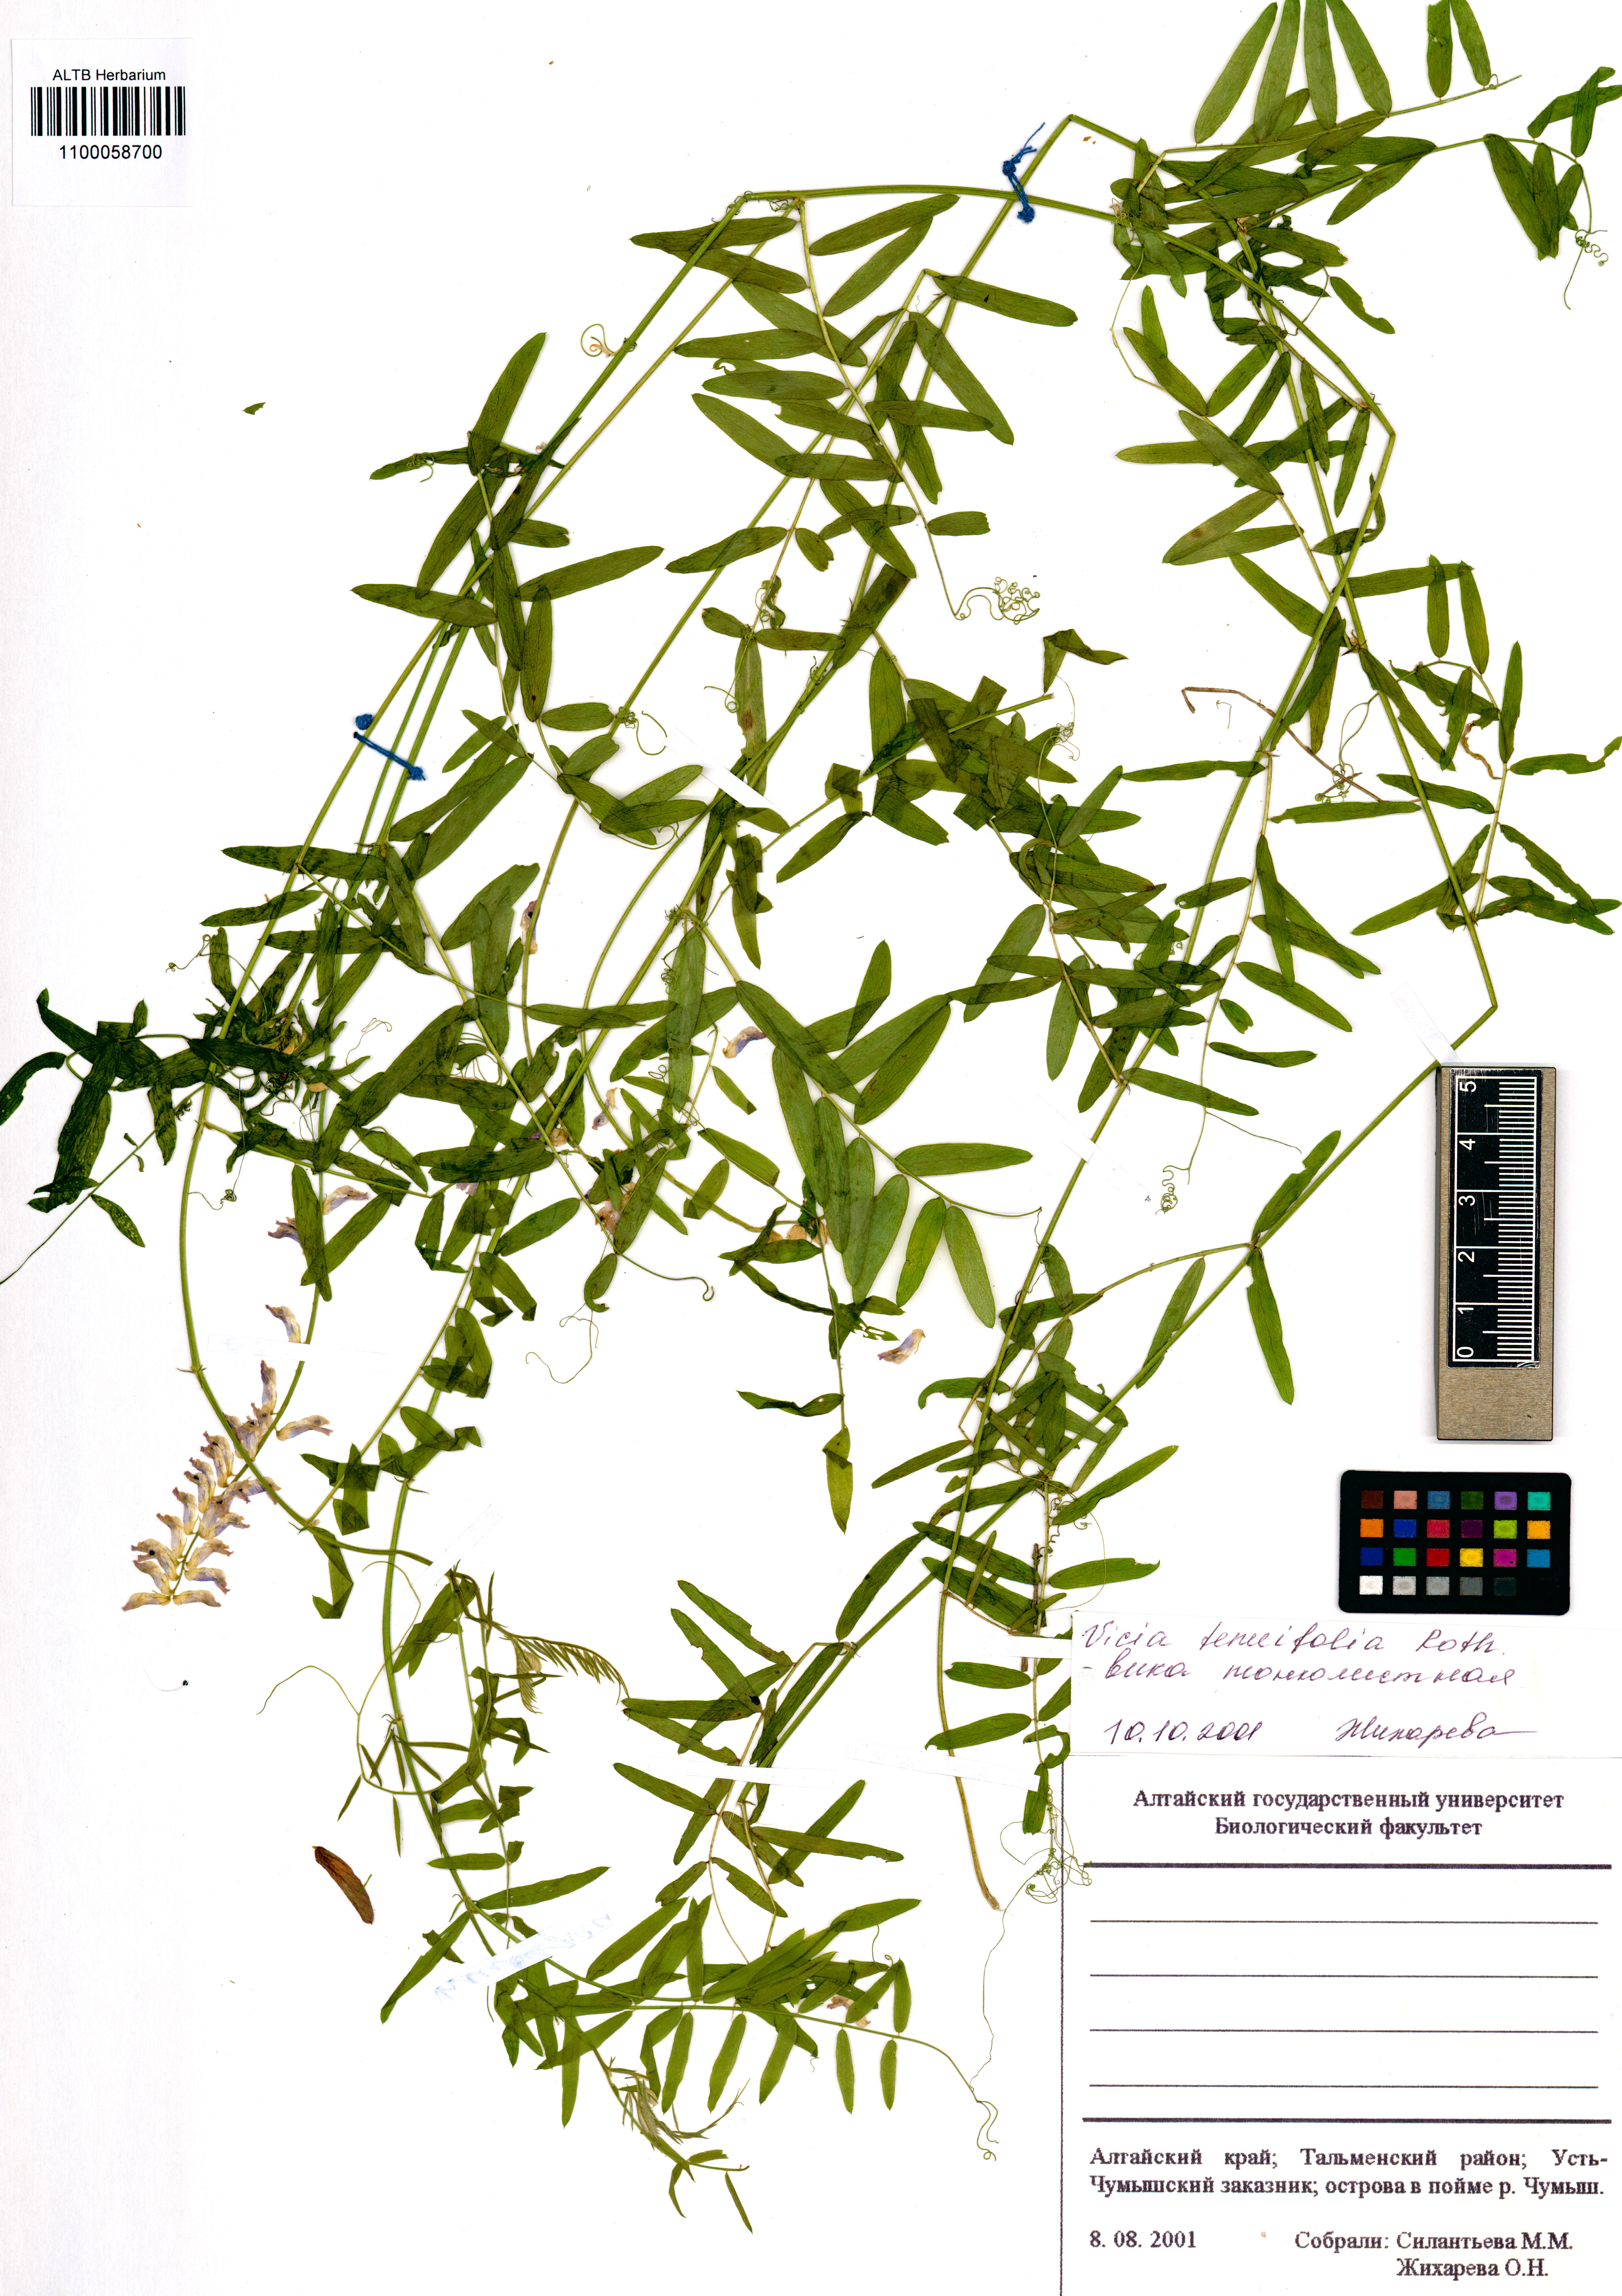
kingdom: Plantae
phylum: Tracheophyta
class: Magnoliopsida
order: Fabales
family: Fabaceae
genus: Vicia
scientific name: Vicia tenuifolia
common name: Fine-leaved vetch
